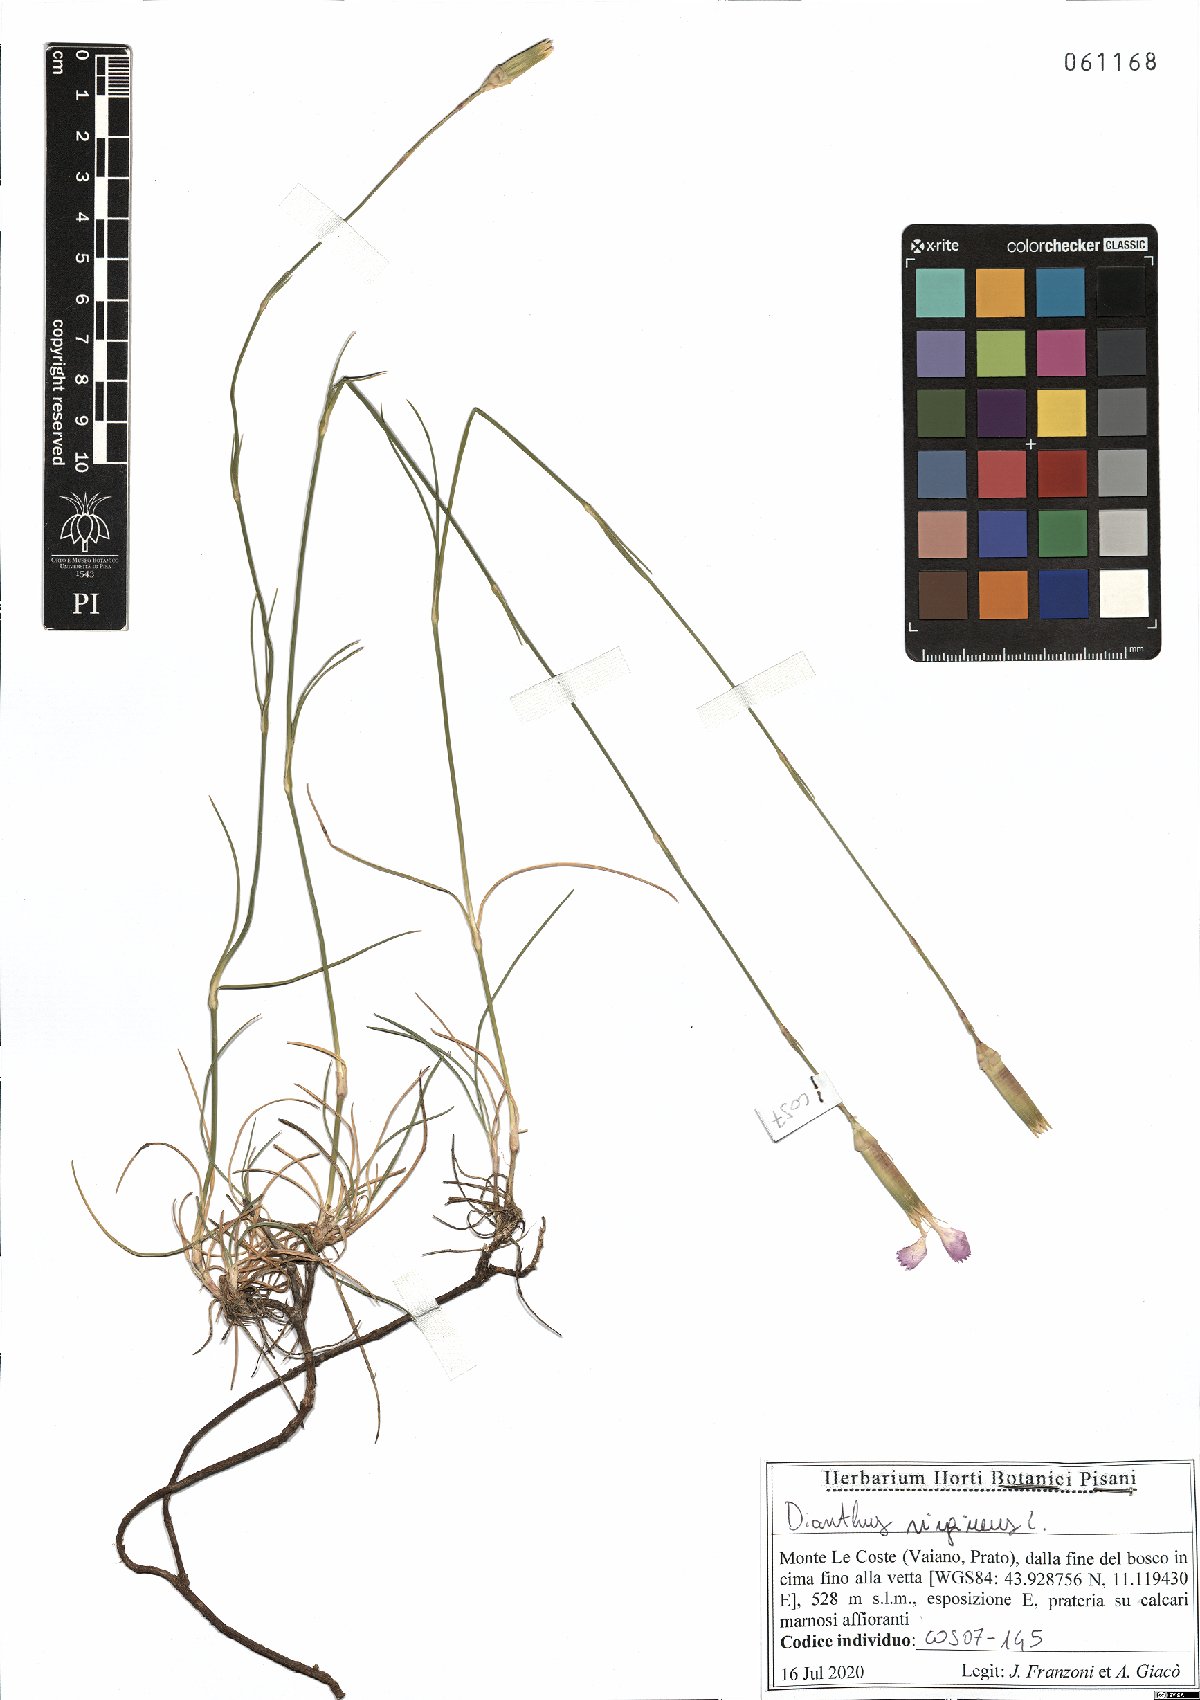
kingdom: Plantae
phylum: Tracheophyta
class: Magnoliopsida
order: Caryophyllales
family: Caryophyllaceae
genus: Dianthus
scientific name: Dianthus virgineus
